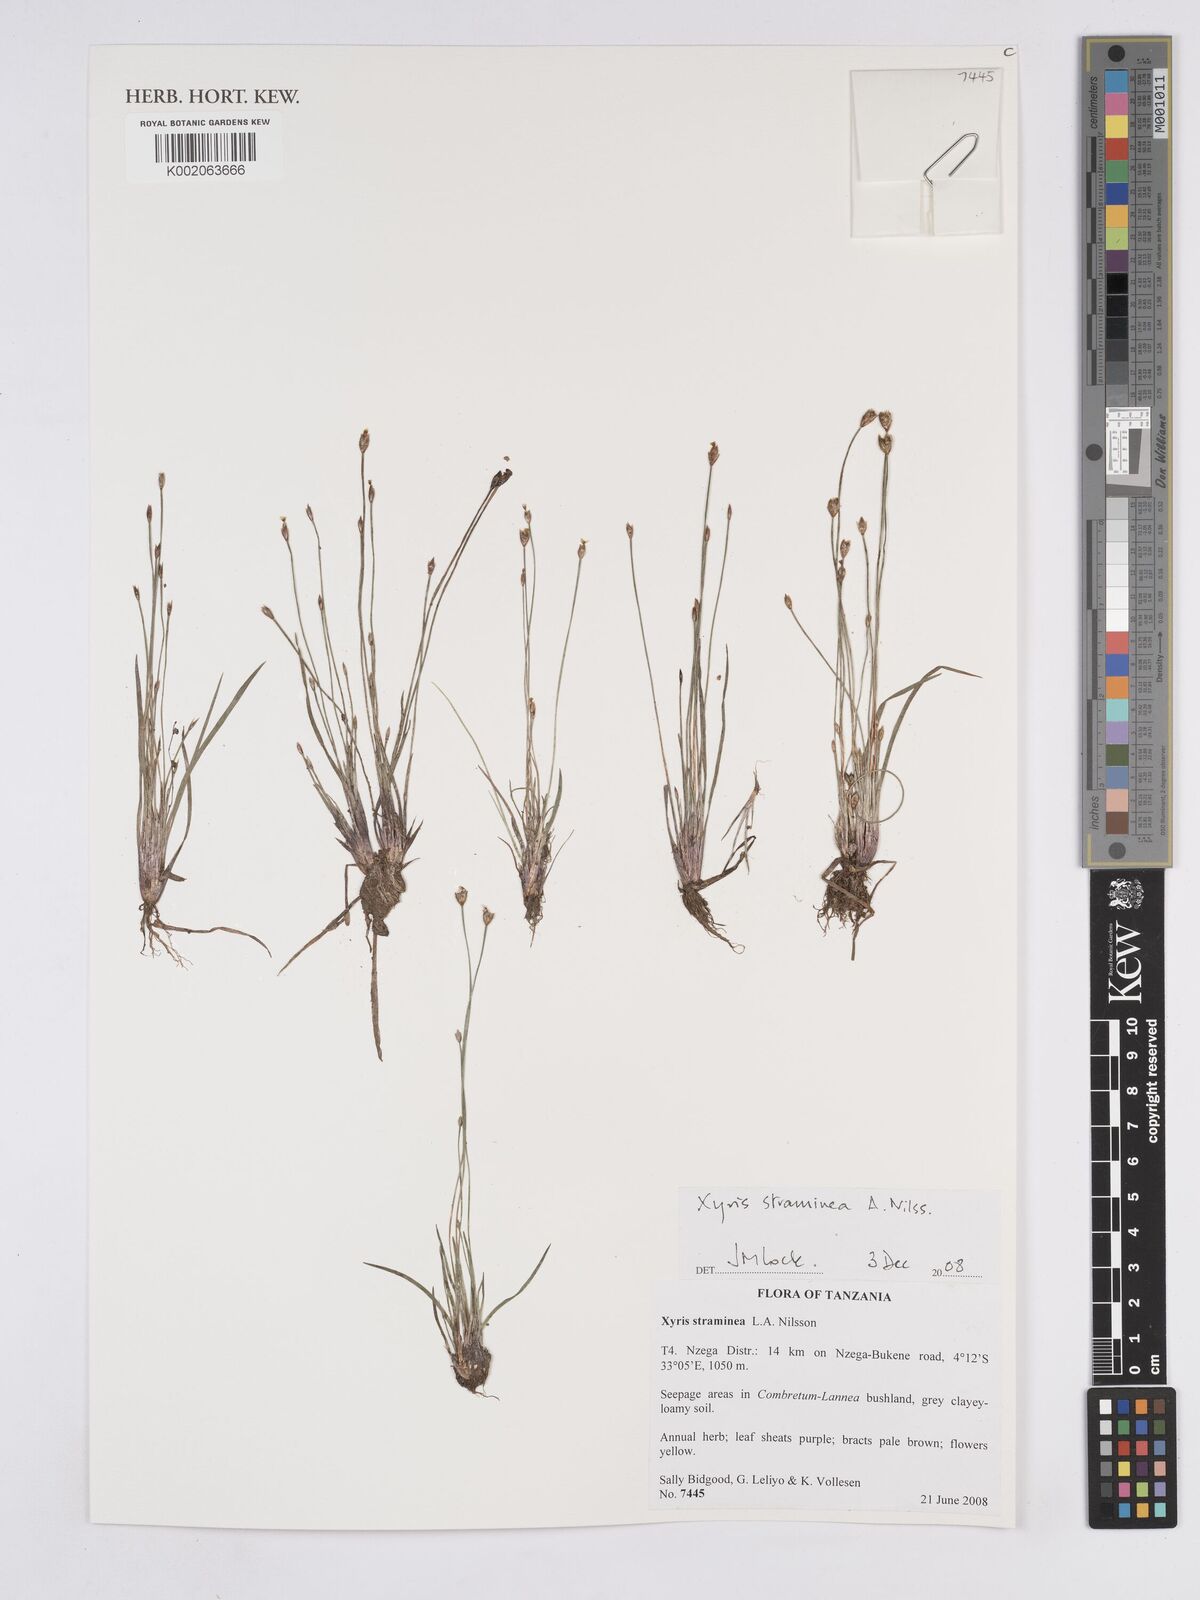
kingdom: Plantae
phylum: Tracheophyta
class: Liliopsida
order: Poales
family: Xyridaceae
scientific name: Xyridaceae
